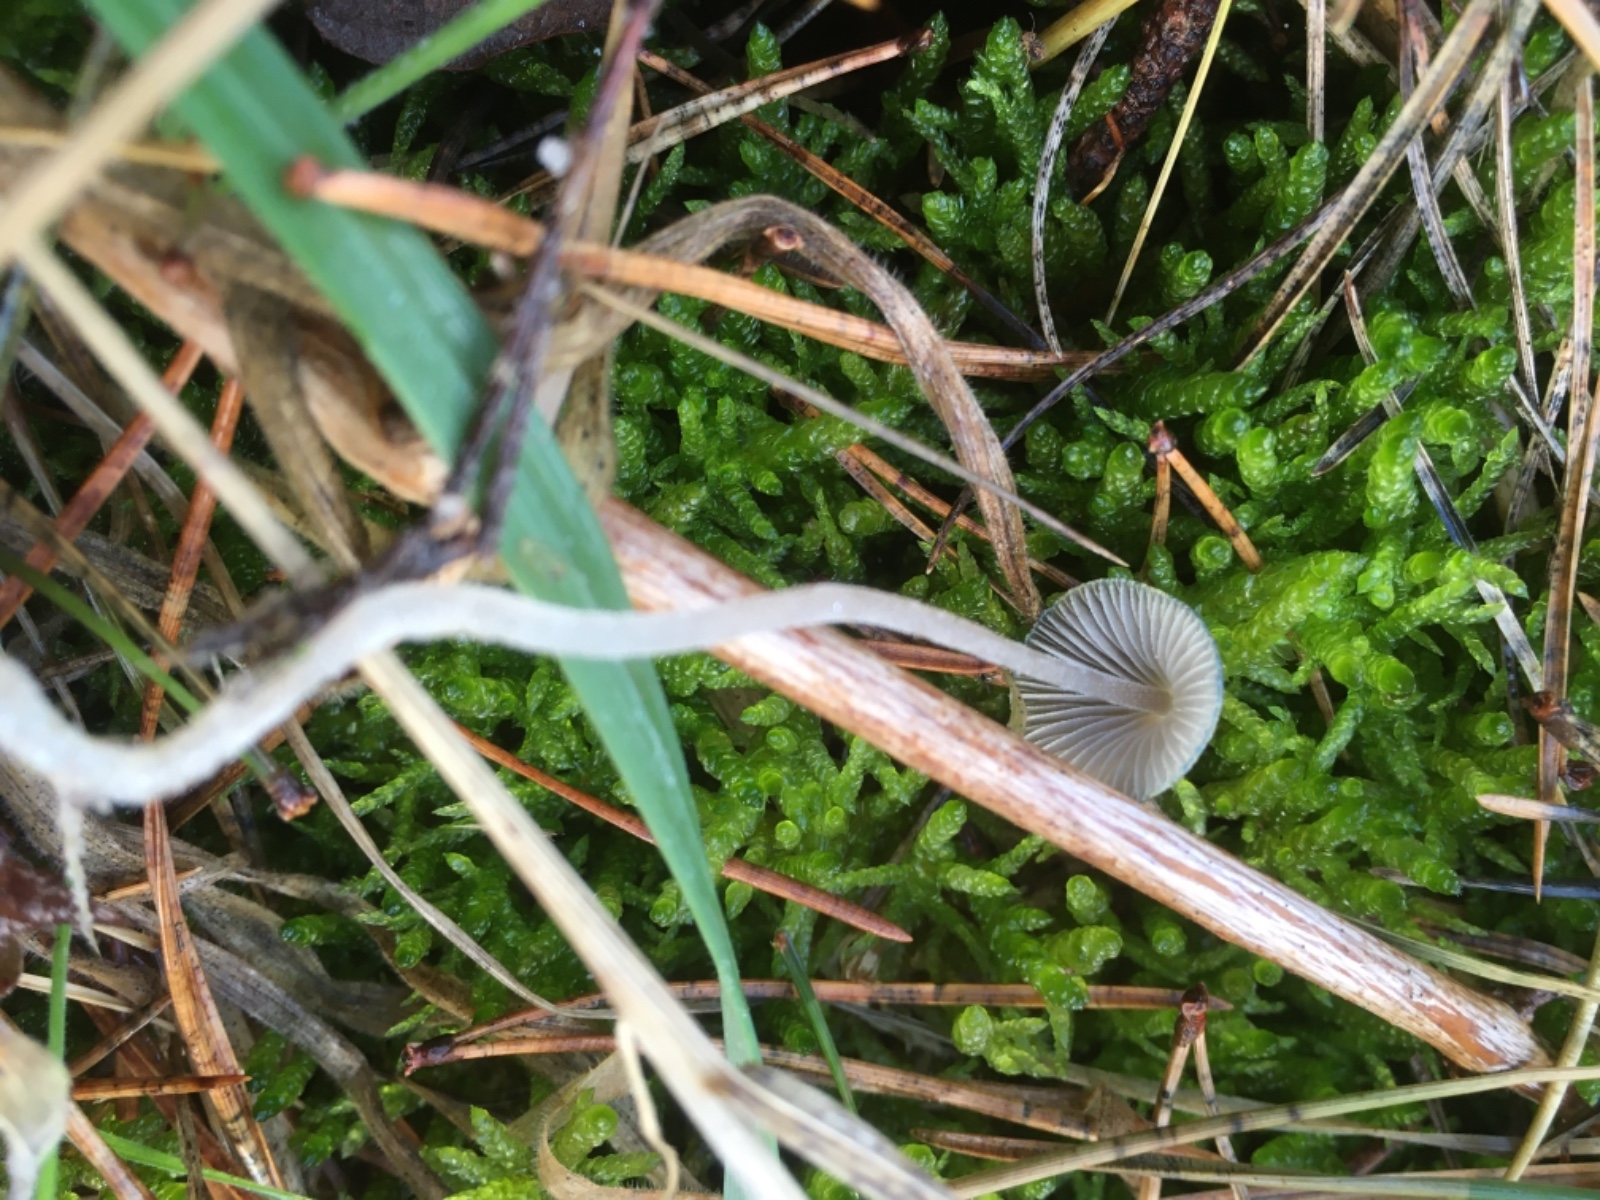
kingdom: Fungi
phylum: Basidiomycota
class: Agaricomycetes
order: Agaricales
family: Mycenaceae
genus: Mycena
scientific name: Mycena amicta
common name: iris-huesvamp
